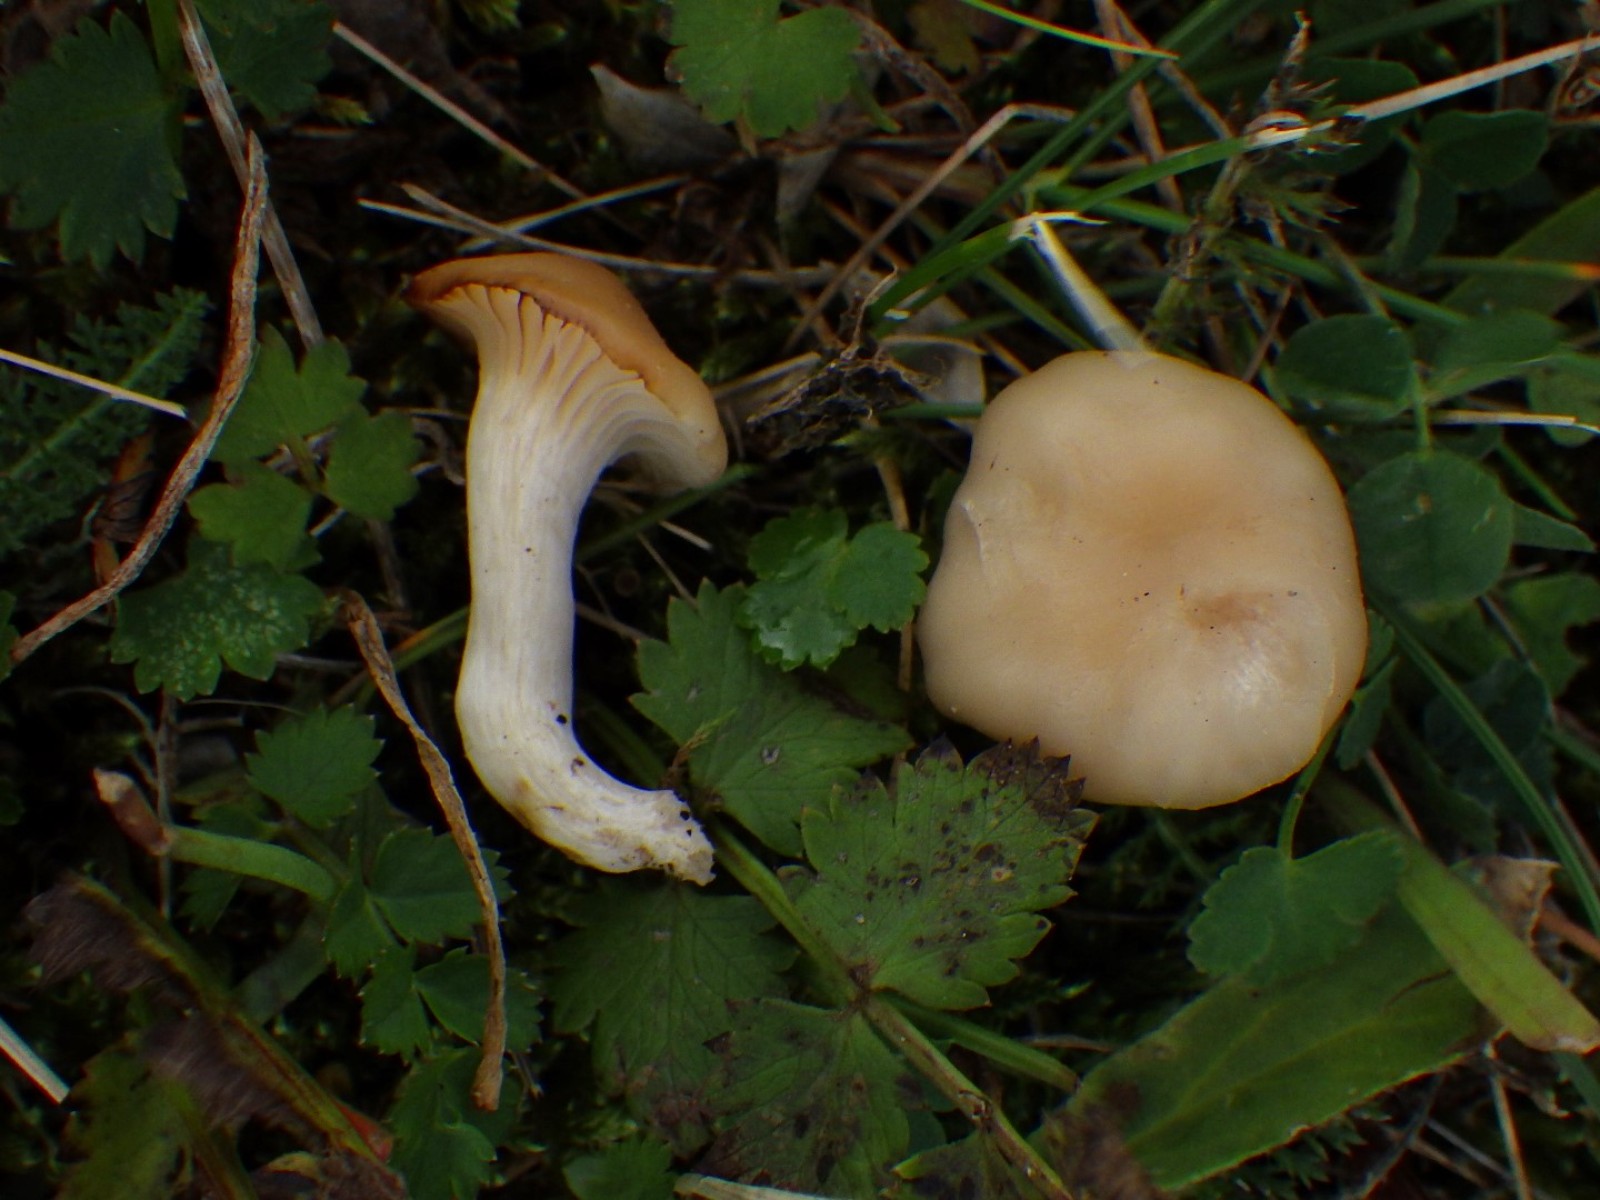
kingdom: Fungi
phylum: Basidiomycota
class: Agaricomycetes
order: Agaricales
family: Hygrophoraceae
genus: Cuphophyllus
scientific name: Cuphophyllus virgineus
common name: isabella-vokshat
